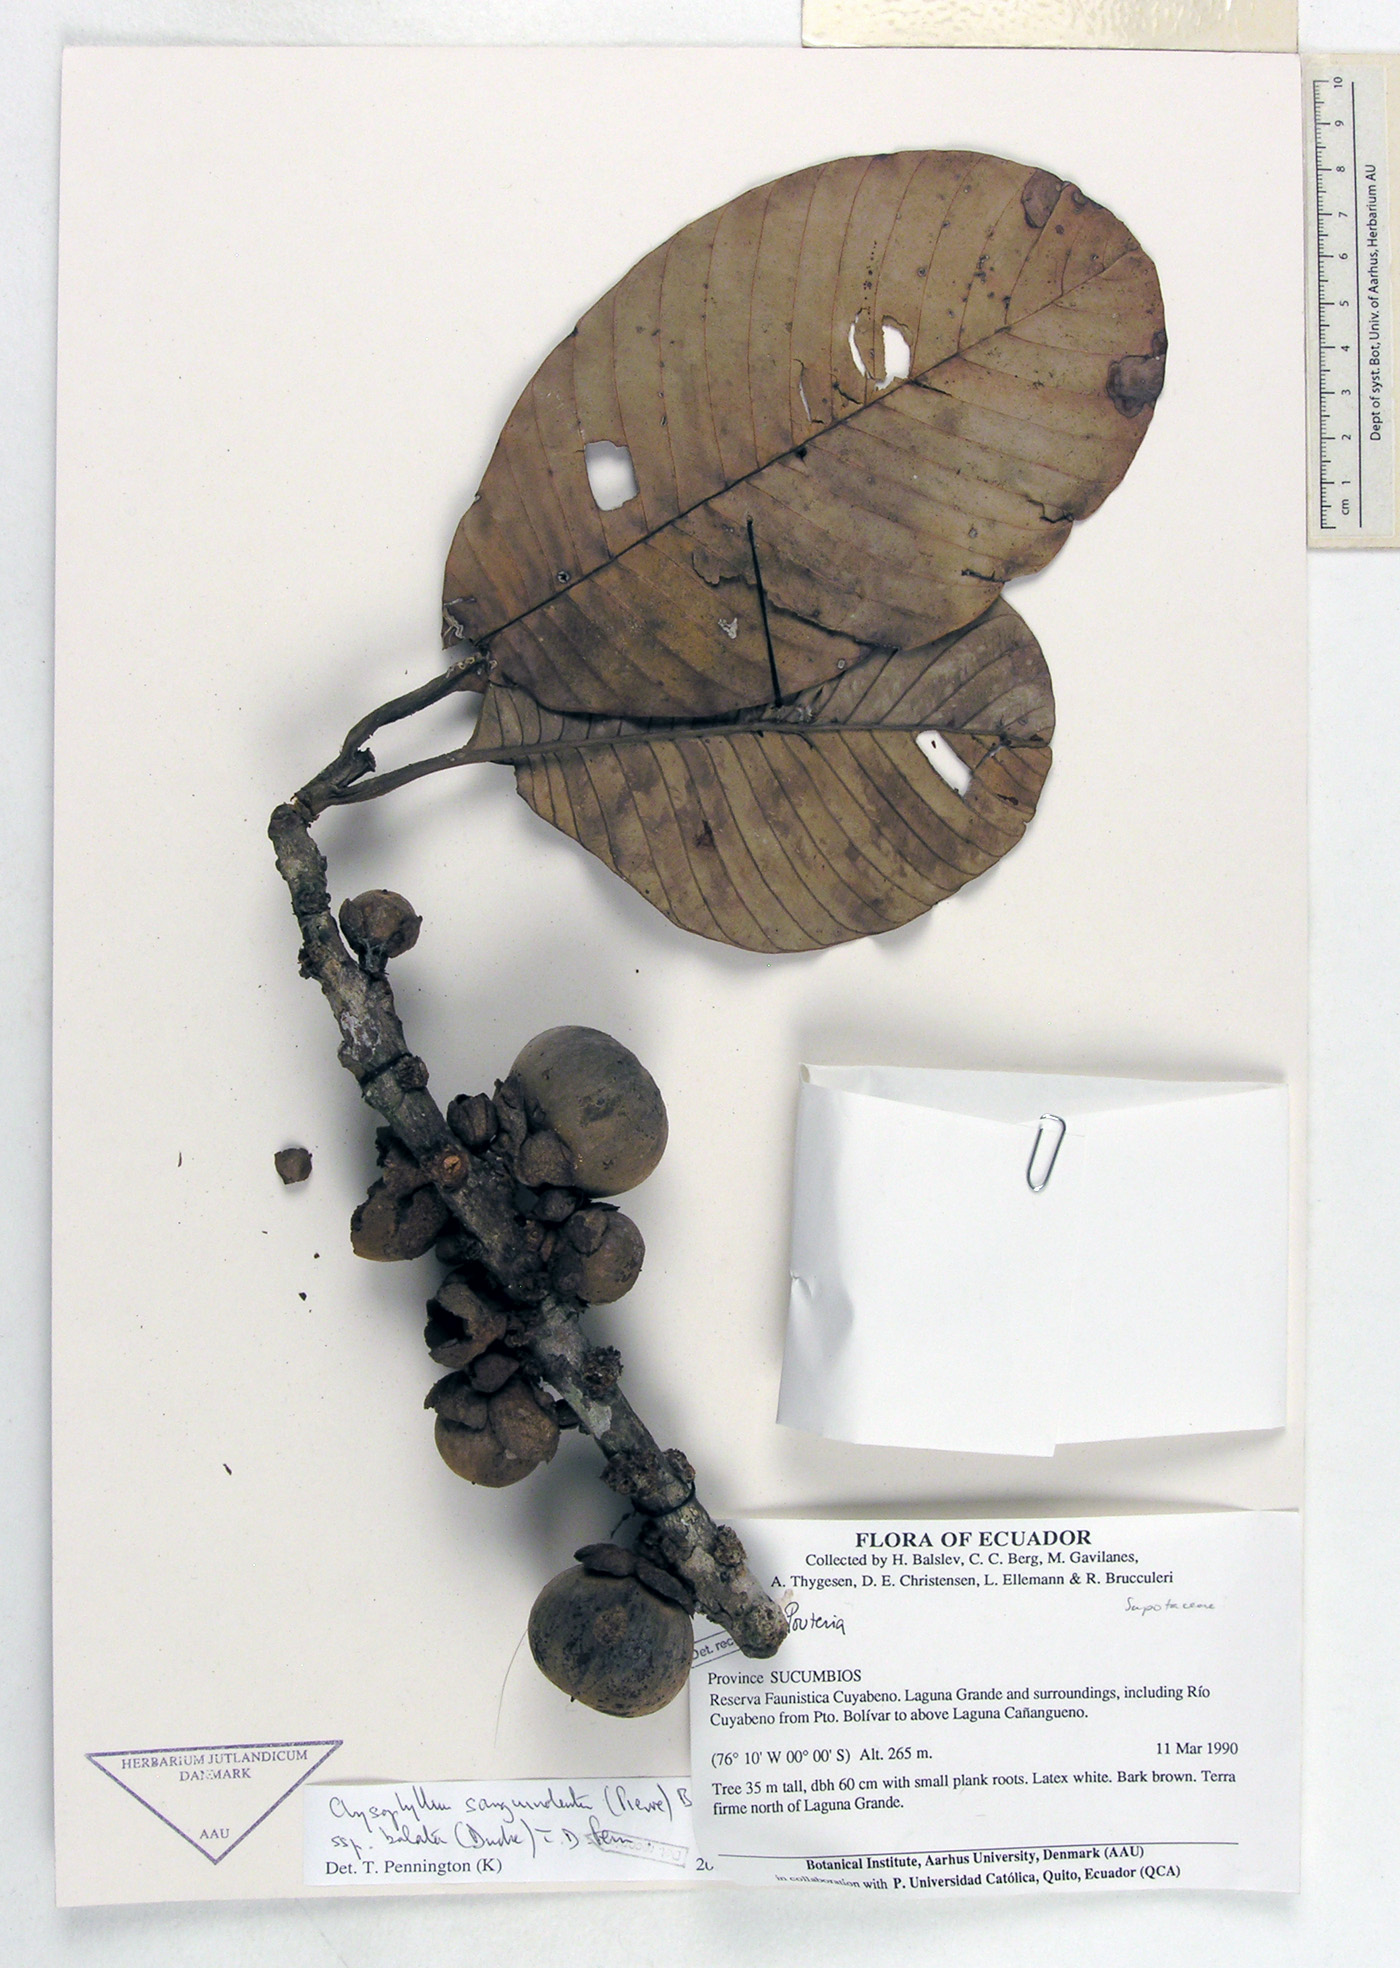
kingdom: Plantae
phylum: Tracheophyta
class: Magnoliopsida
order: Ericales
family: Sapotaceae
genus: Chrysophyllum
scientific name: Chrysophyllum sanguinolentum
